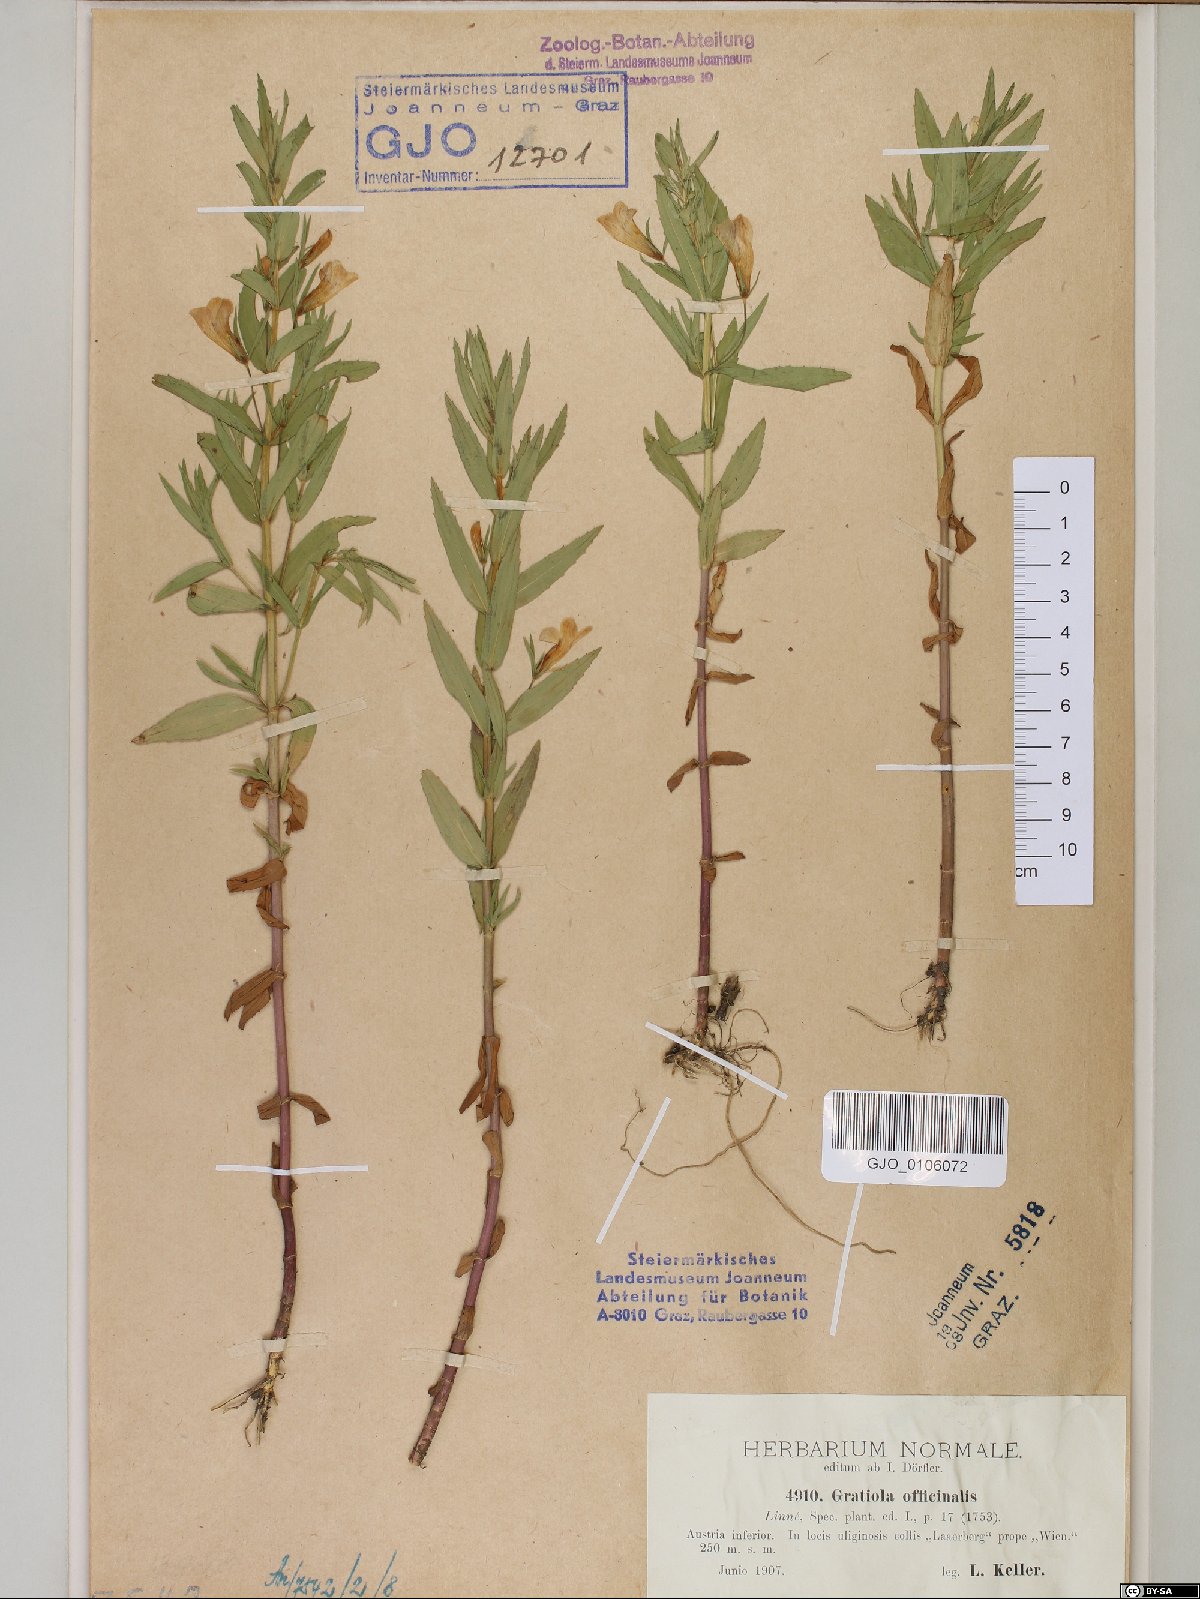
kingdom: Plantae
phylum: Tracheophyta
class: Magnoliopsida
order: Lamiales
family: Plantaginaceae
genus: Gratiola
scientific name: Gratiola officinalis
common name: Gratiola
